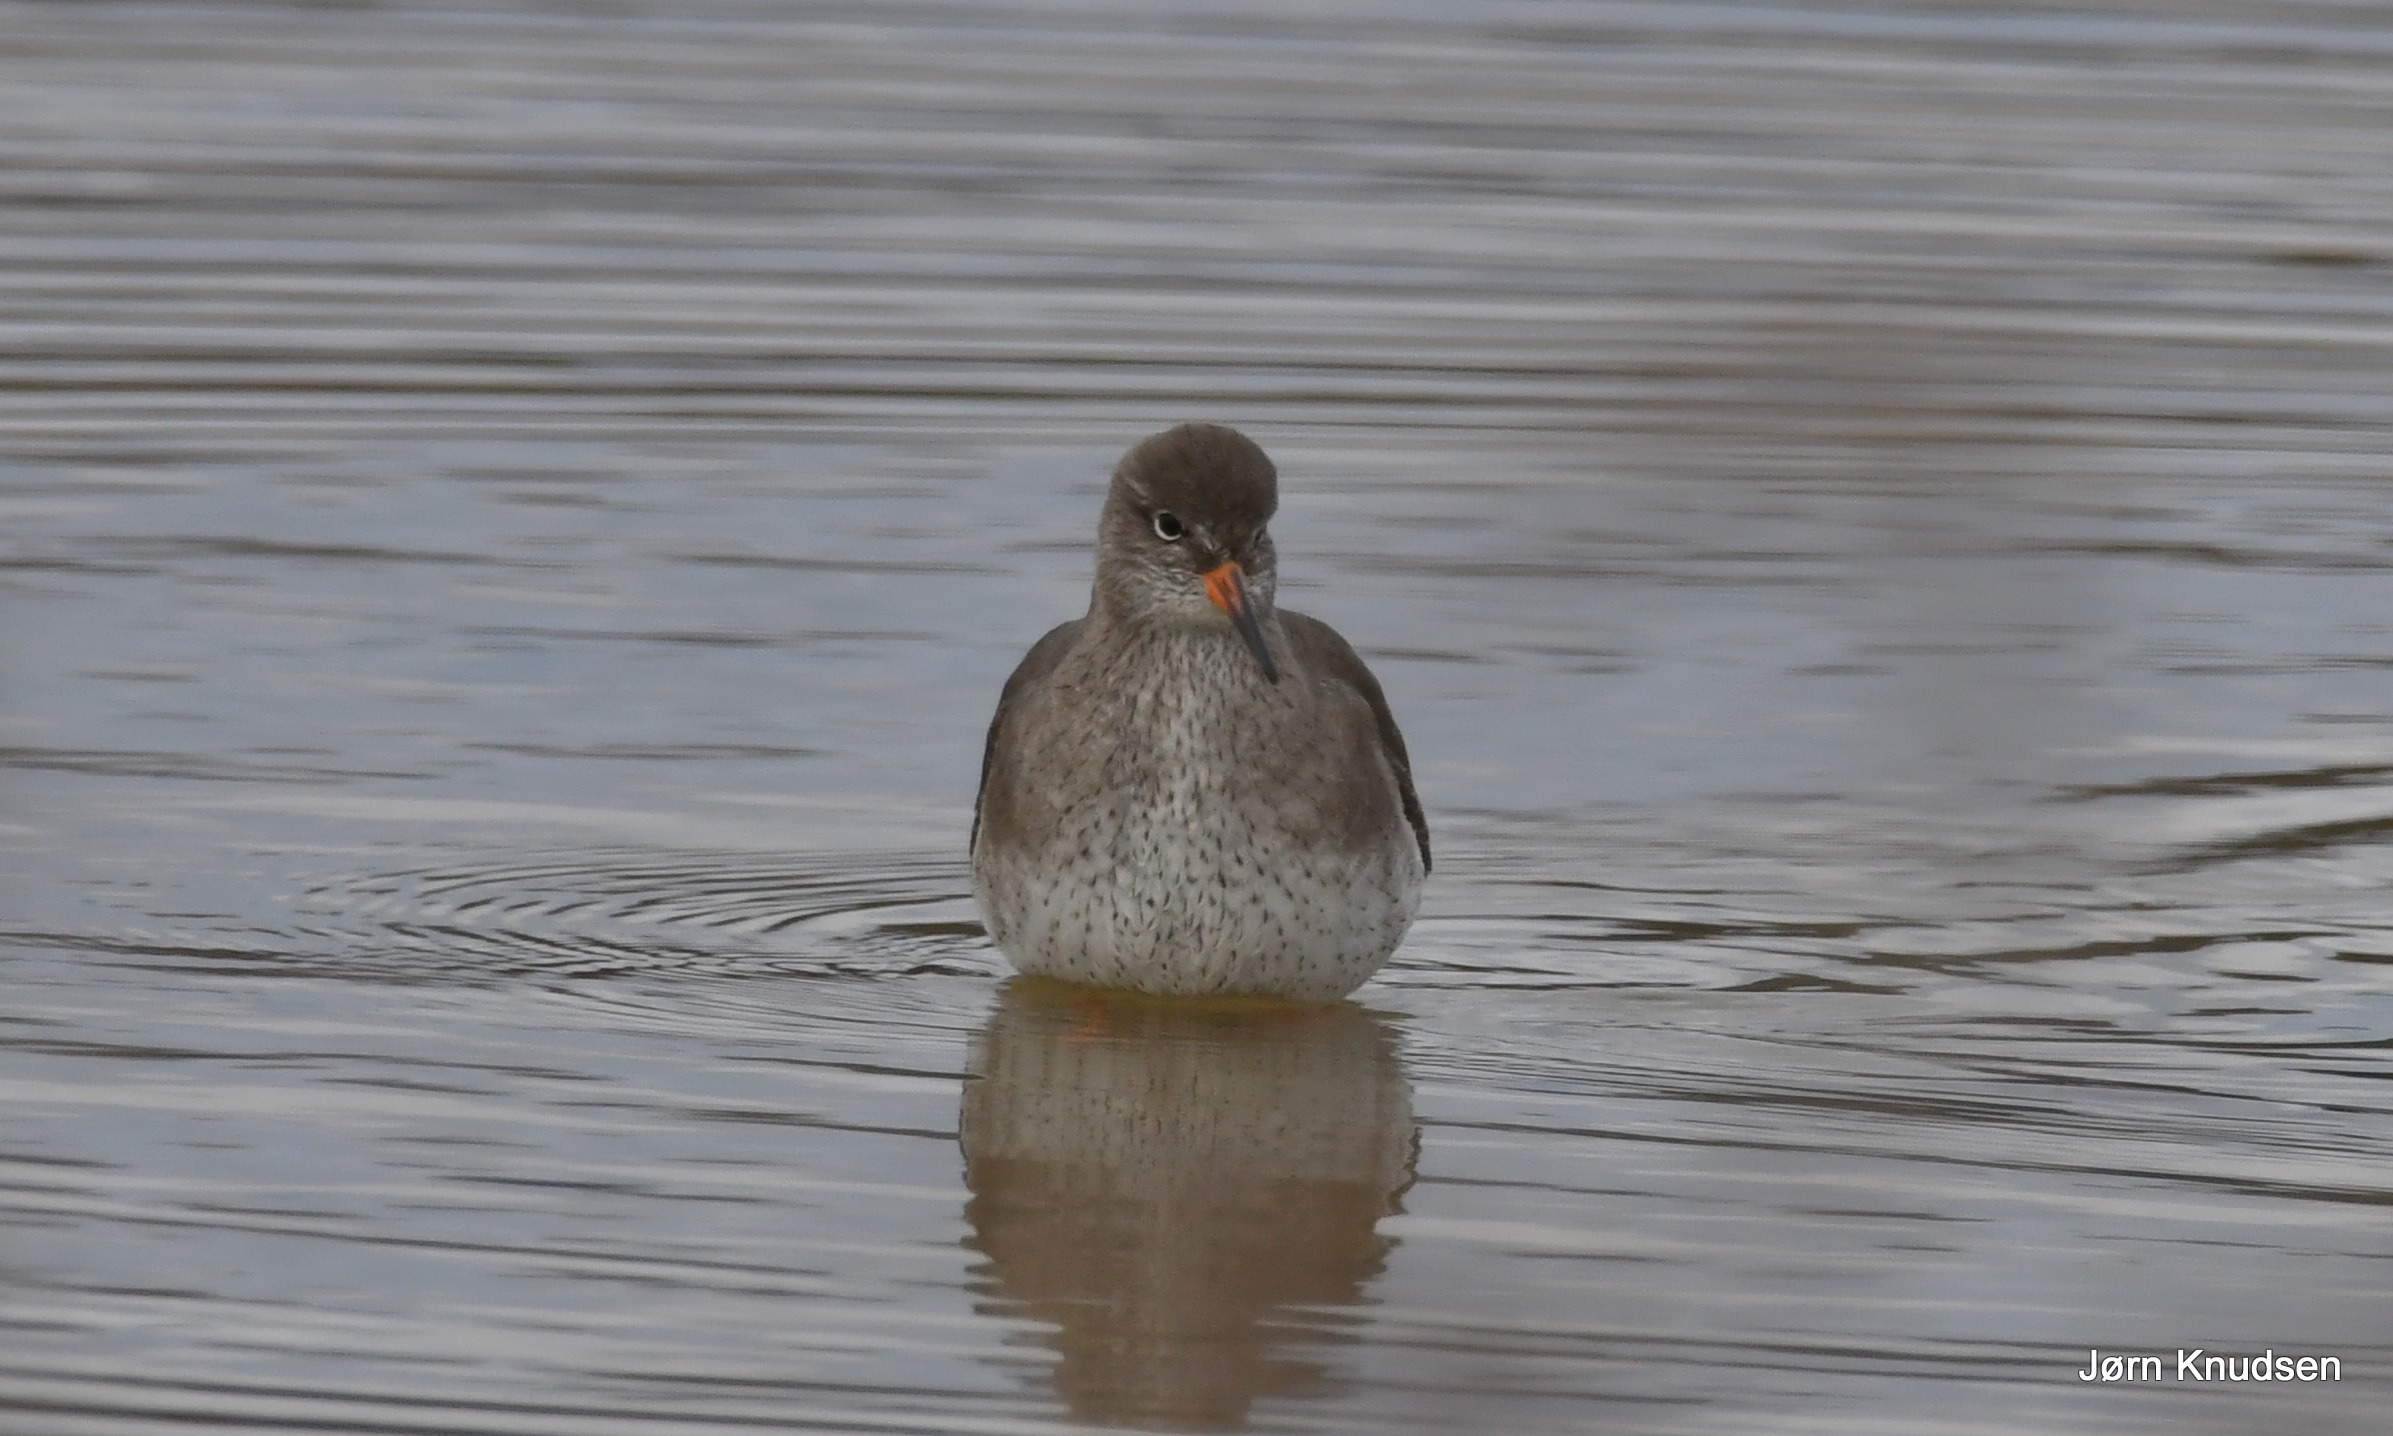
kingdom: Animalia
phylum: Chordata
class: Aves
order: Charadriiformes
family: Scolopacidae
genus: Tringa
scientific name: Tringa totanus
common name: Rødben
